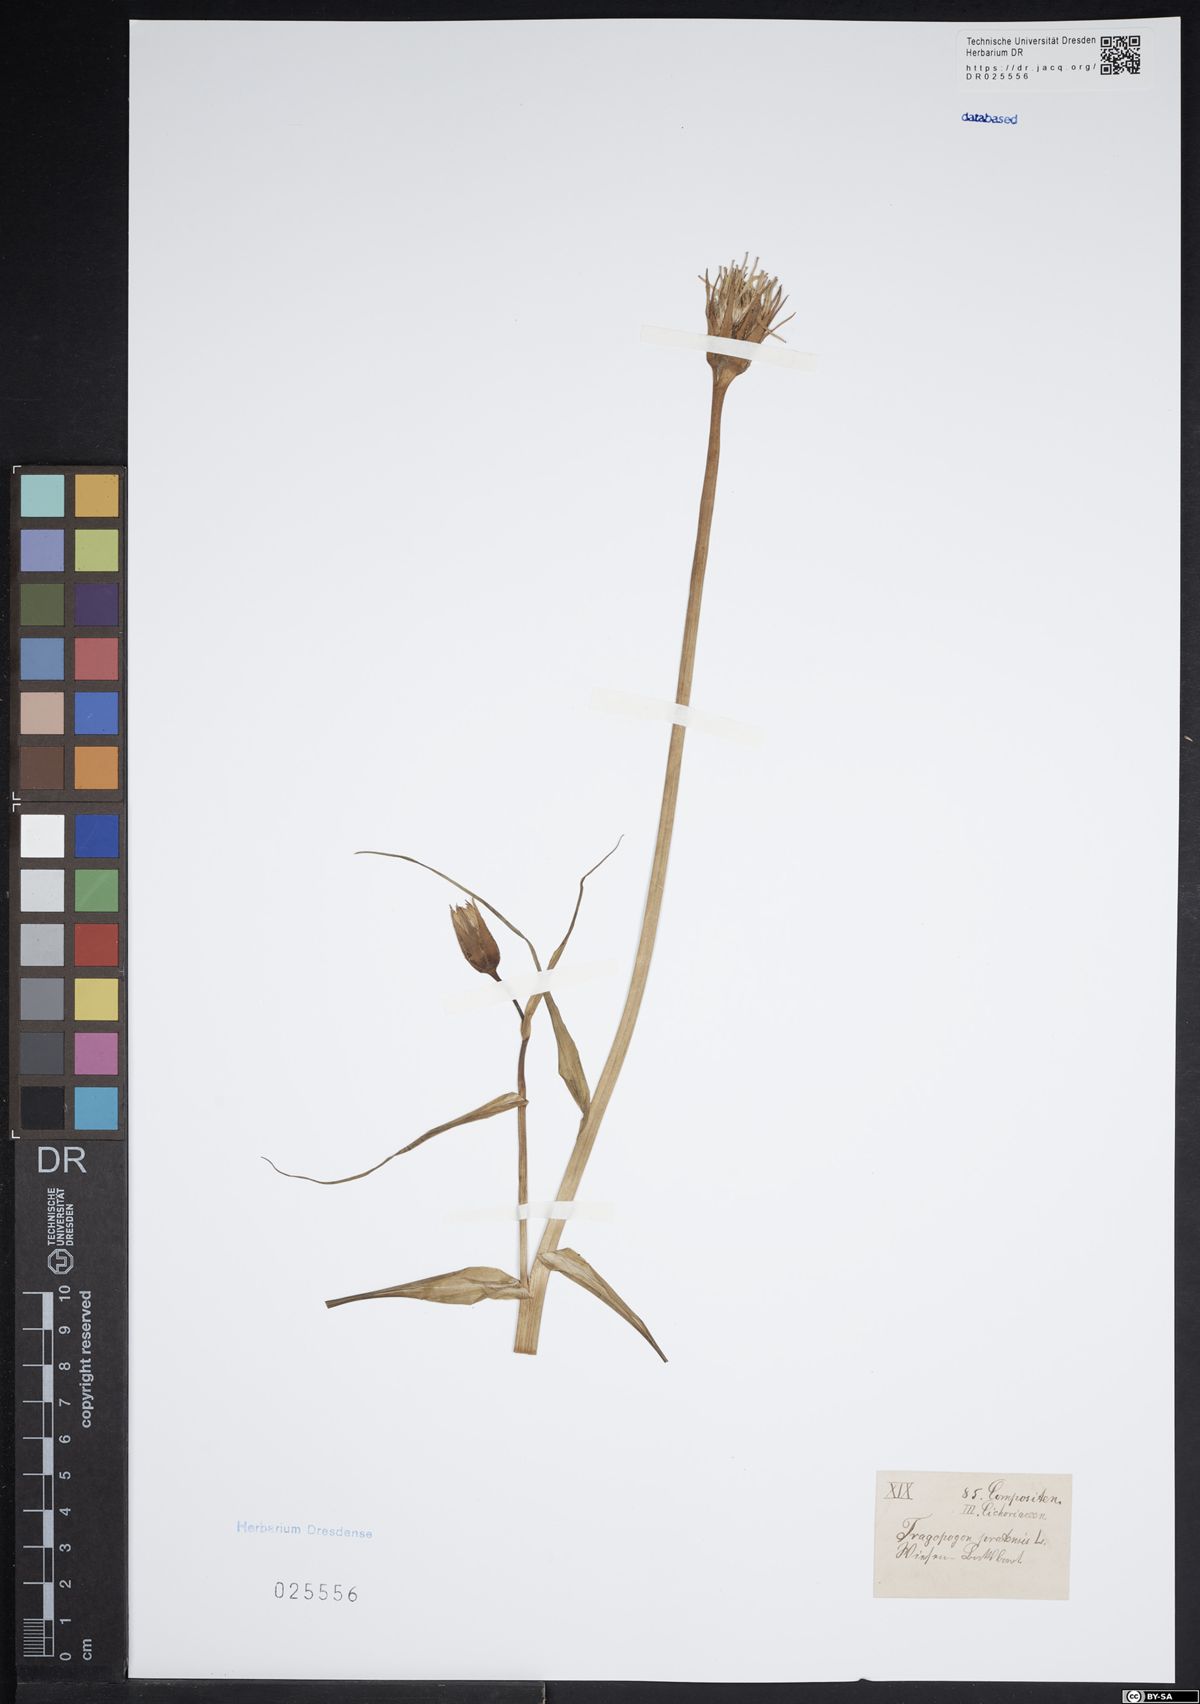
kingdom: Plantae
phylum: Tracheophyta
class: Magnoliopsida
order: Asterales
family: Asteraceae
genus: Tragopogon
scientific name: Tragopogon pratensis
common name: Goat's-beard
